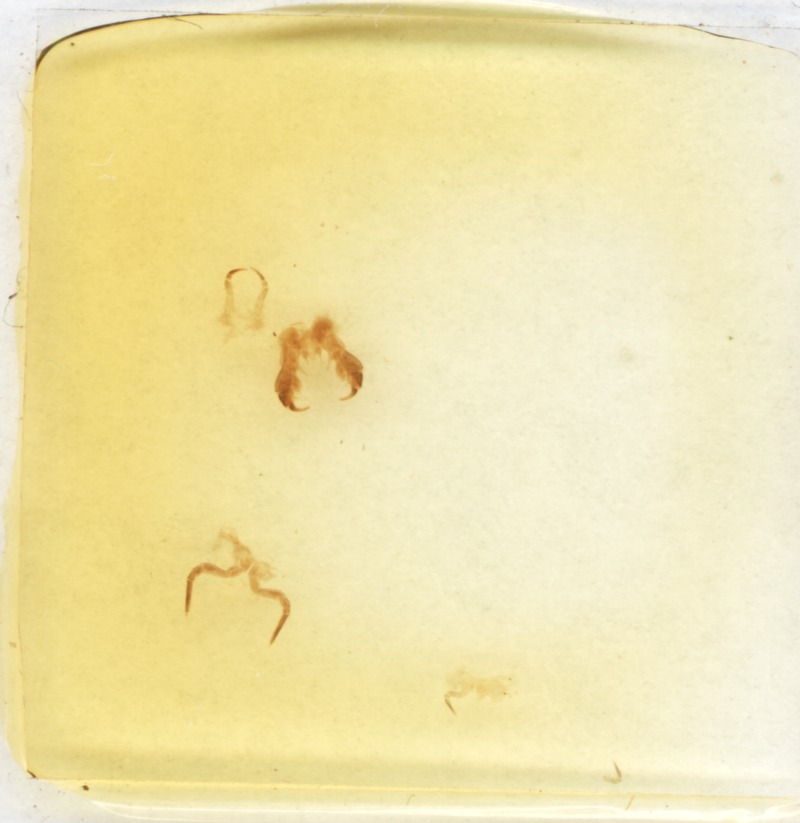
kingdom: Animalia
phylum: Arthropoda
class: Diplopoda
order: Glomerida
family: Glomeridae
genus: Glomeris
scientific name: Glomeris valesiaca
